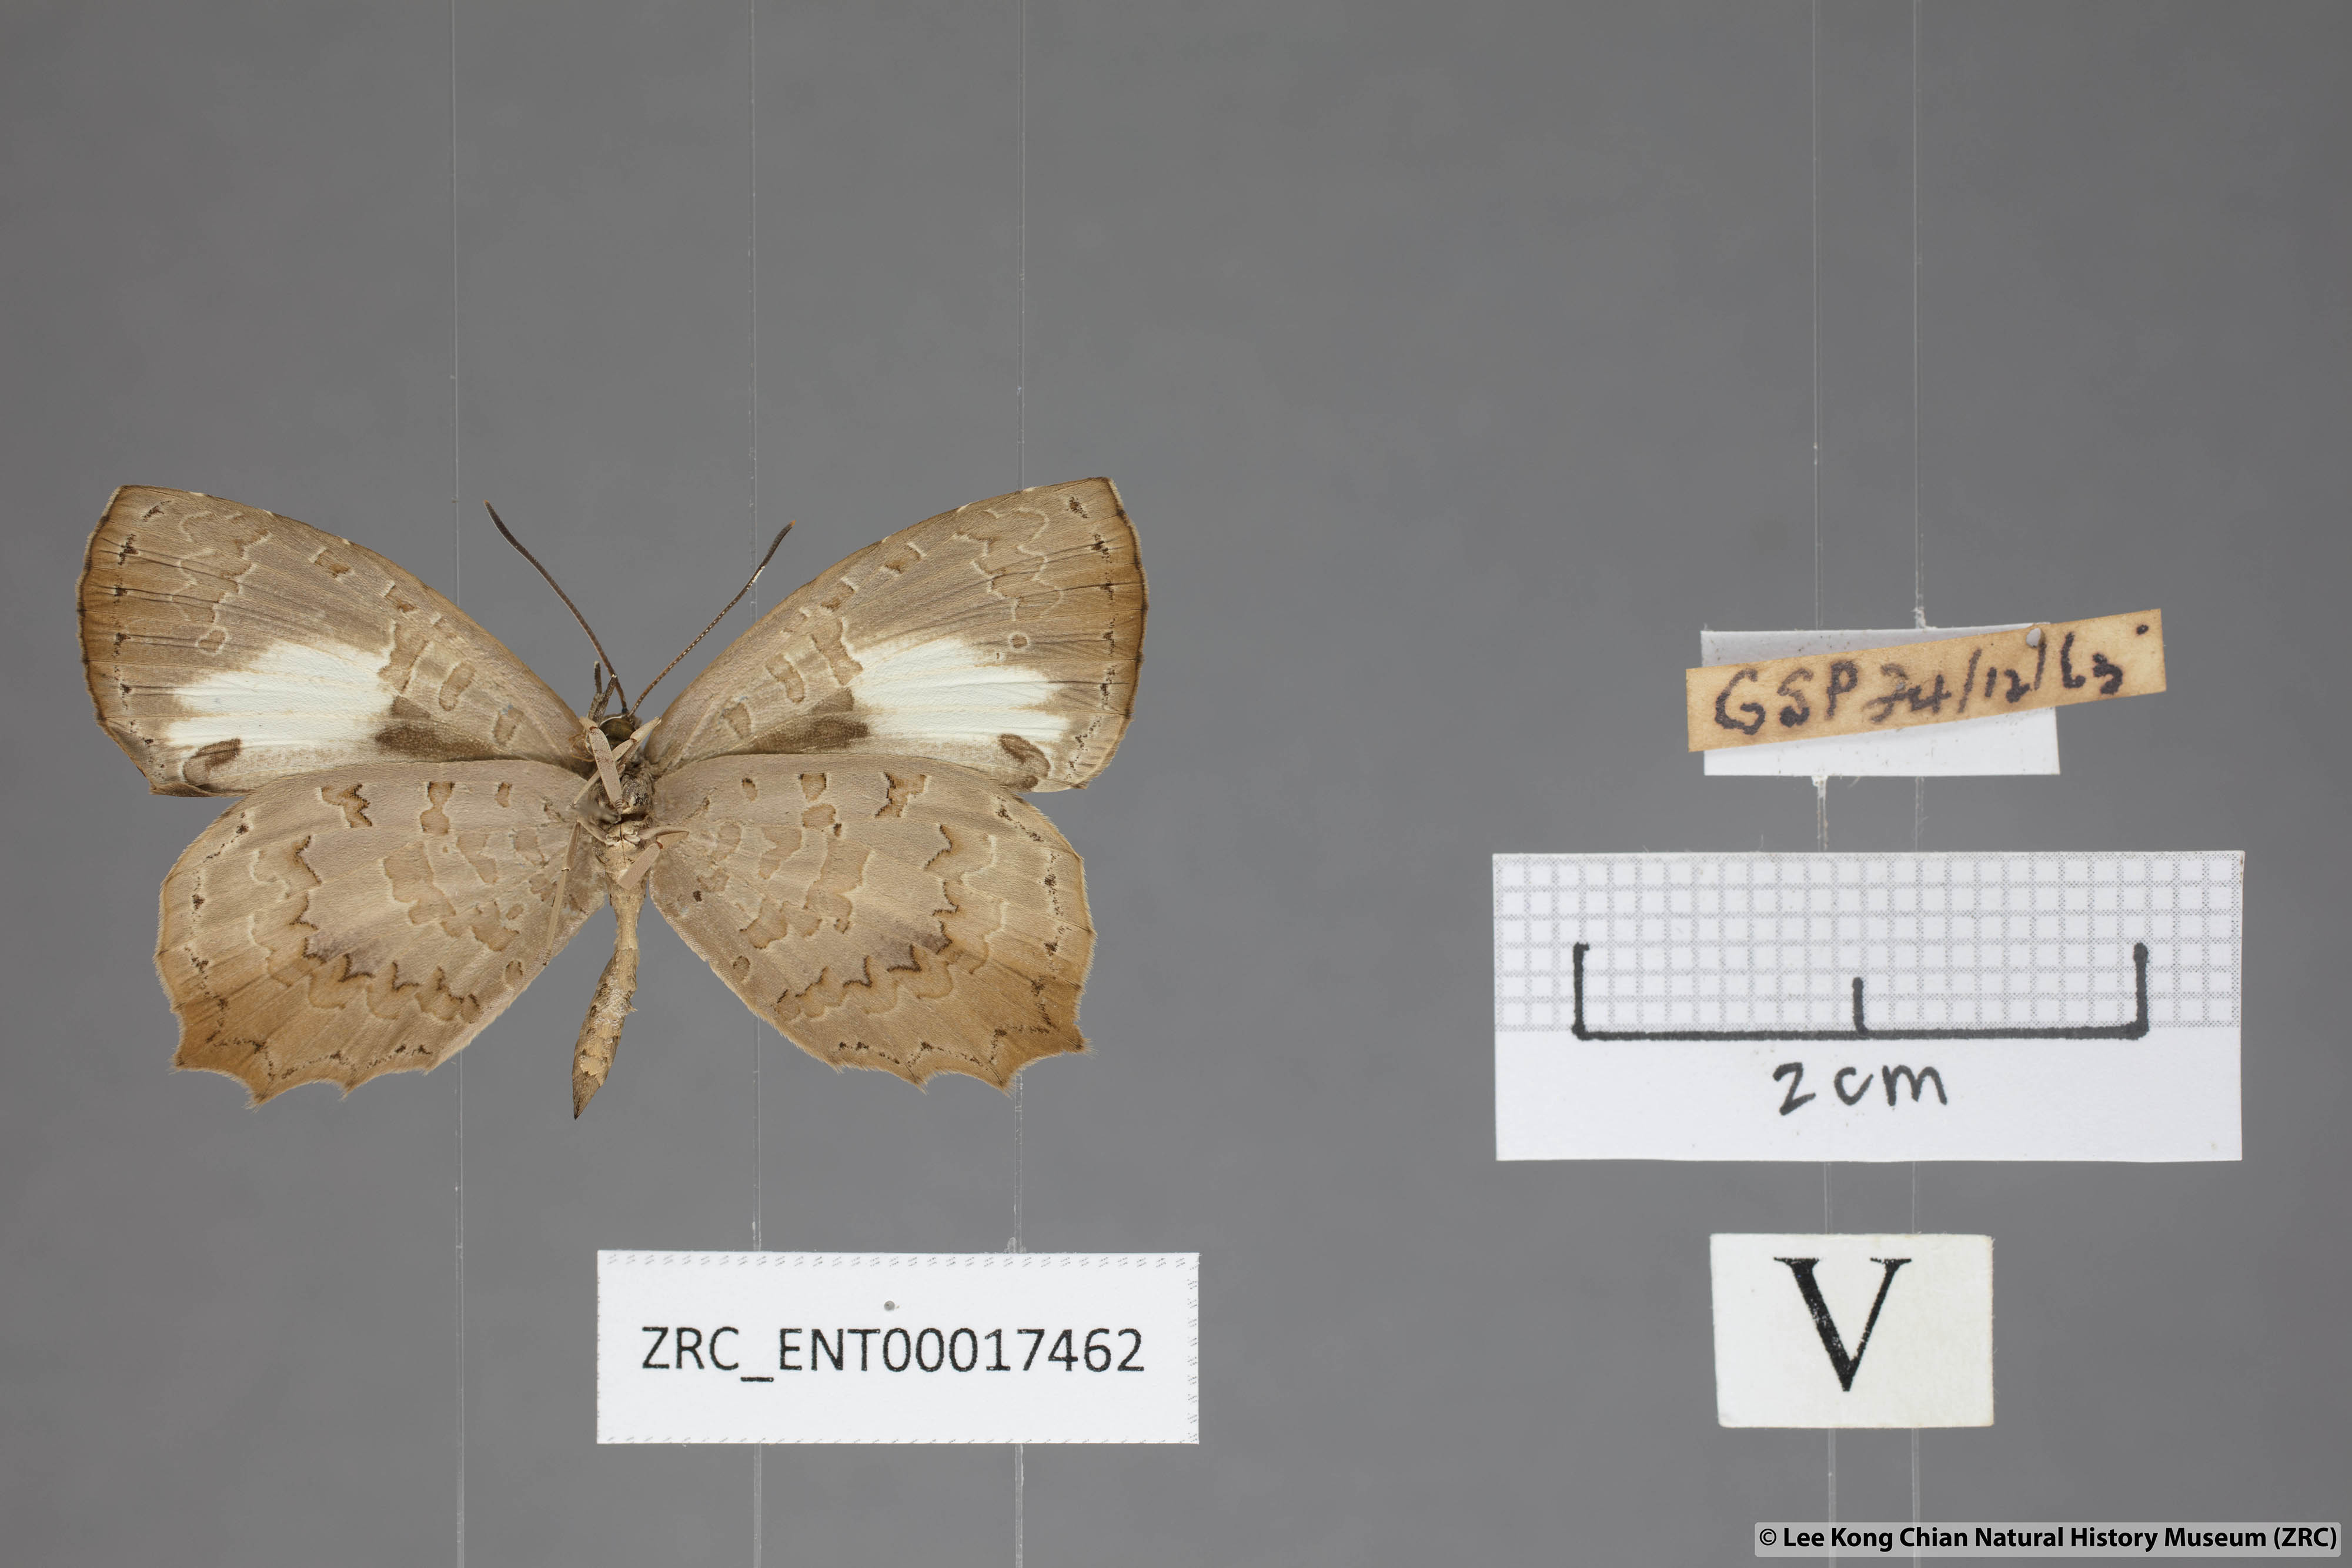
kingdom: Animalia
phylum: Arthropoda
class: Insecta
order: Lepidoptera
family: Lycaenidae
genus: Miletus
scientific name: Miletus gopara
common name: Round-banded brownie
